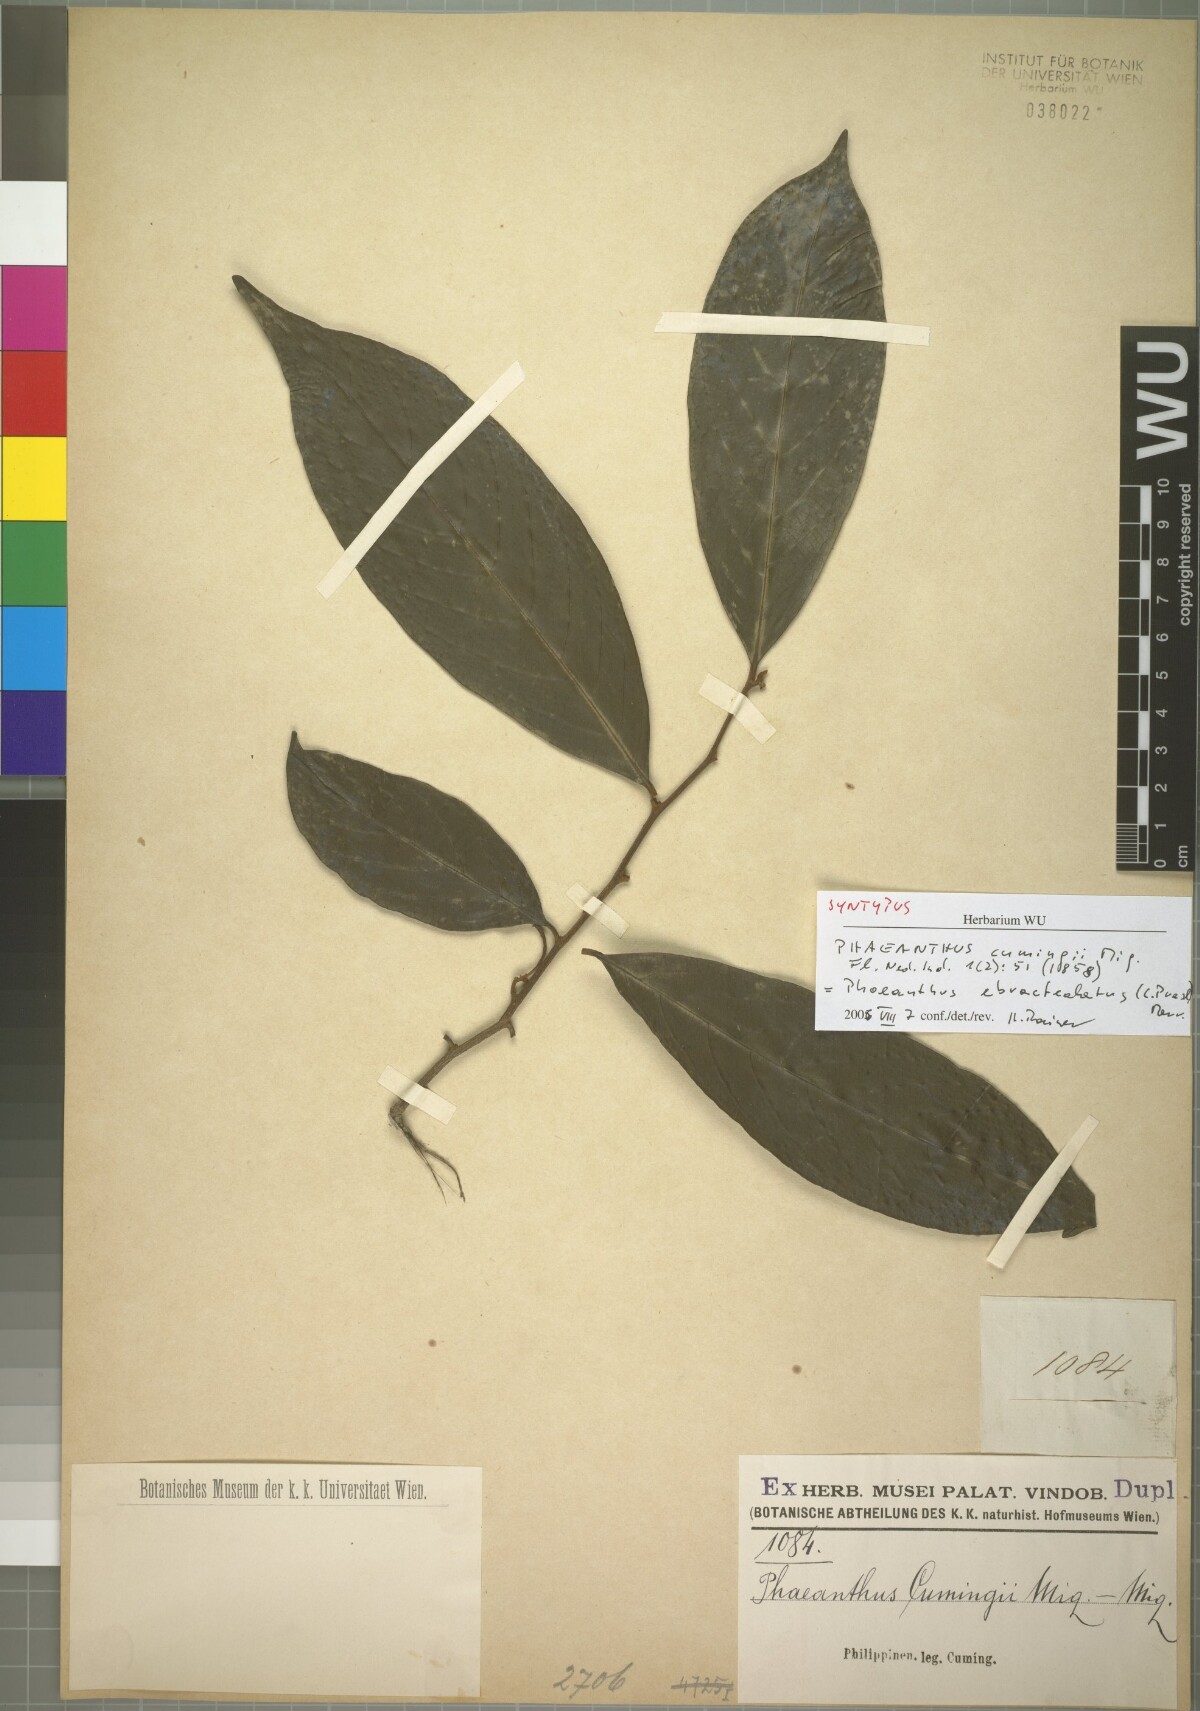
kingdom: Plantae
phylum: Tracheophyta
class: Magnoliopsida
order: Magnoliales
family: Annonaceae
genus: Phaeanthus
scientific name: Phaeanthus ophthalmicus
